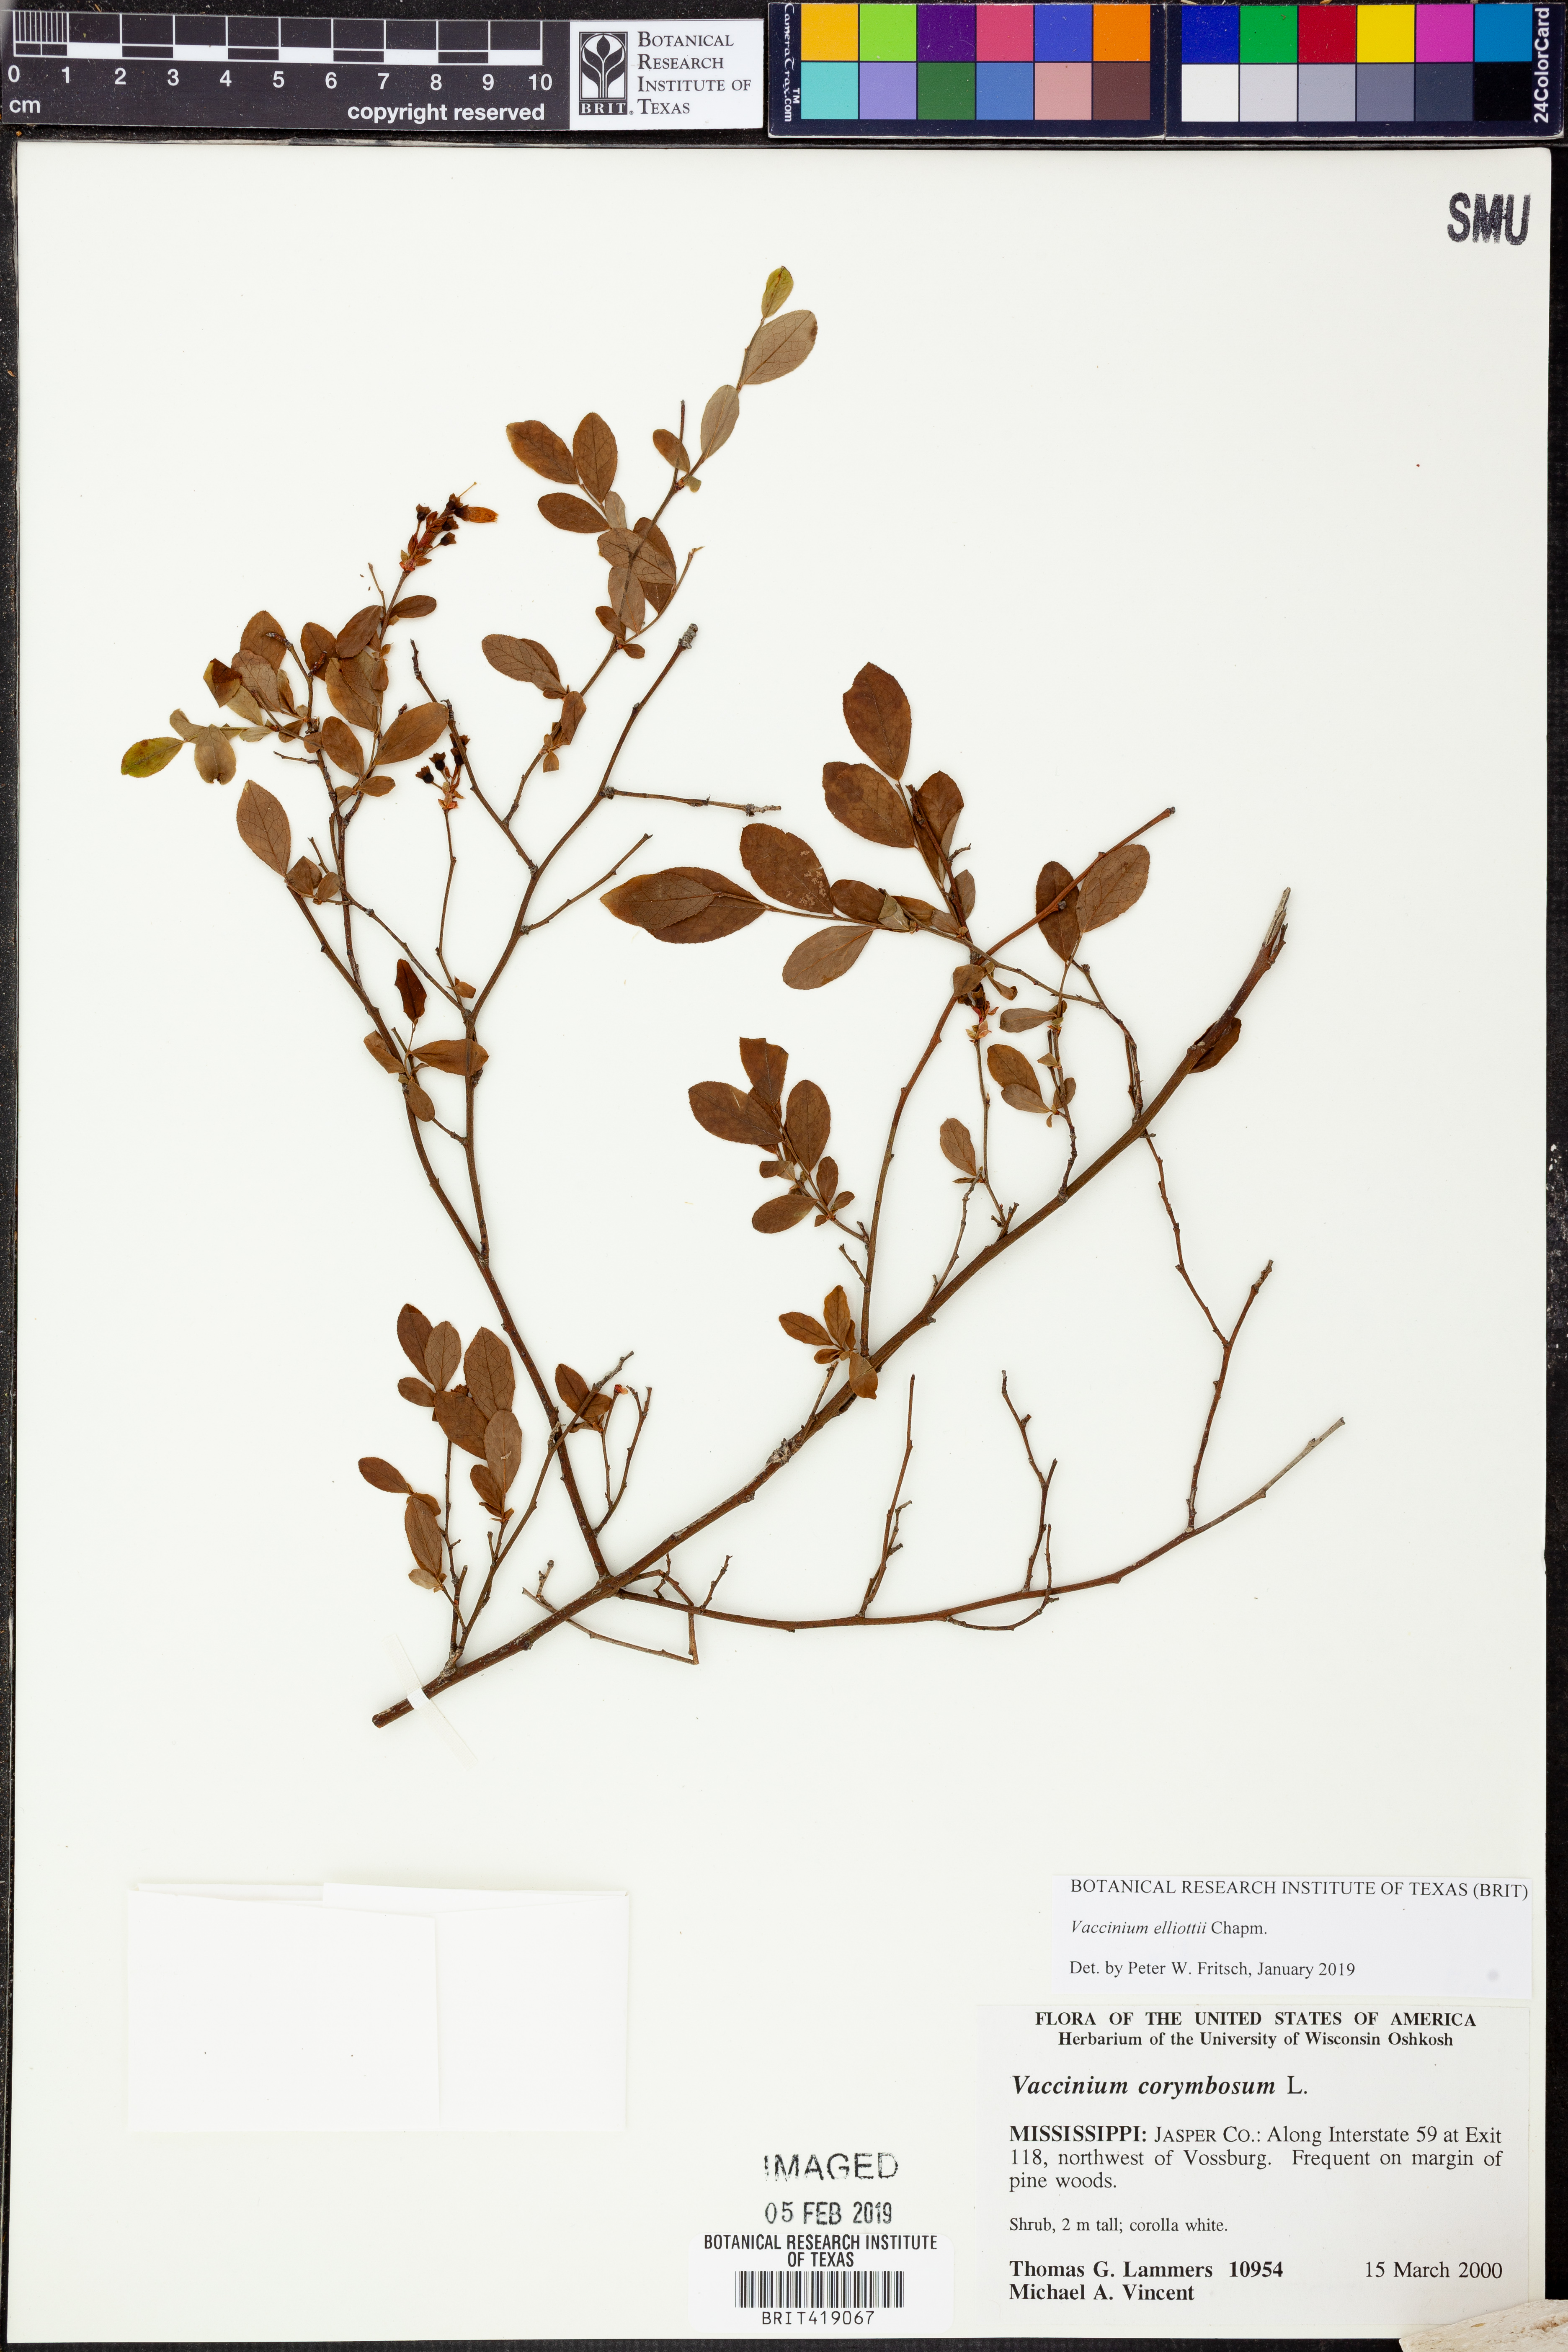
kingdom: Plantae
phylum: Tracheophyta
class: Magnoliopsida
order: Ericales
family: Ericaceae
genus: Vaccinium
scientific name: Vaccinium corymbosum
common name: Blueberry
